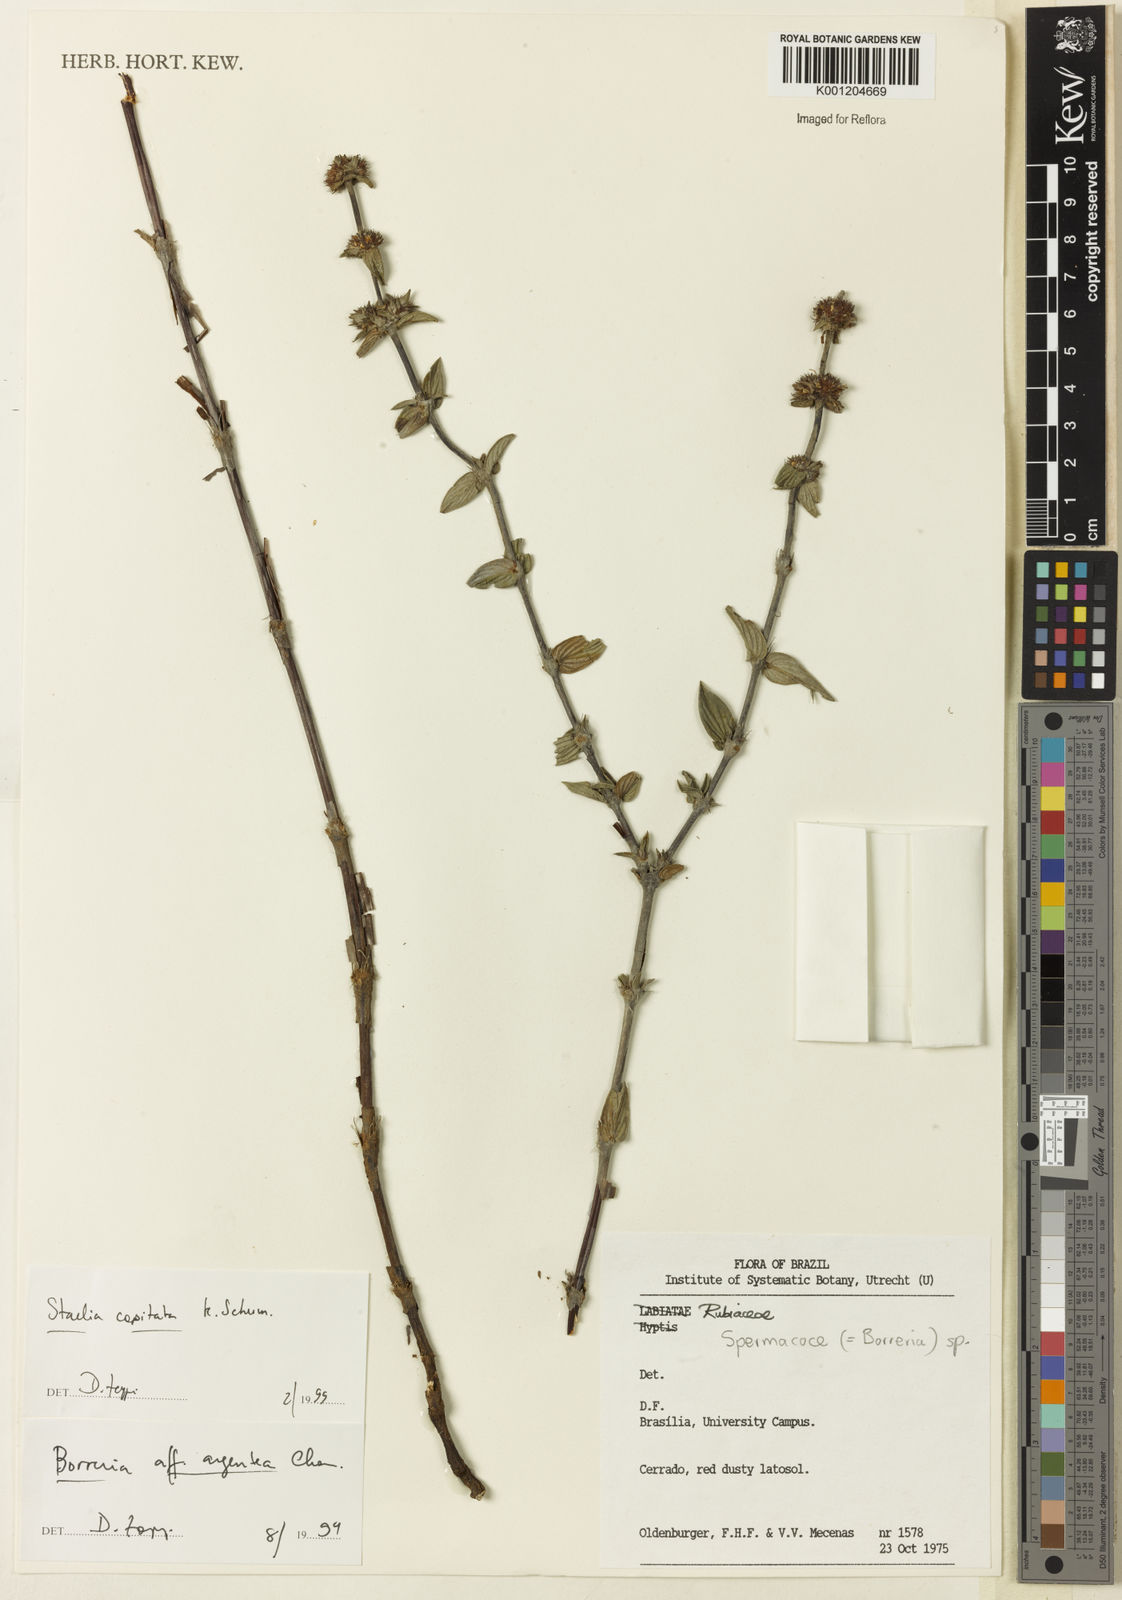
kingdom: Plantae
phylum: Tracheophyta
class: Magnoliopsida
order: Gentianales
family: Rubiaceae
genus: Planaltina
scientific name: Planaltina capitata
